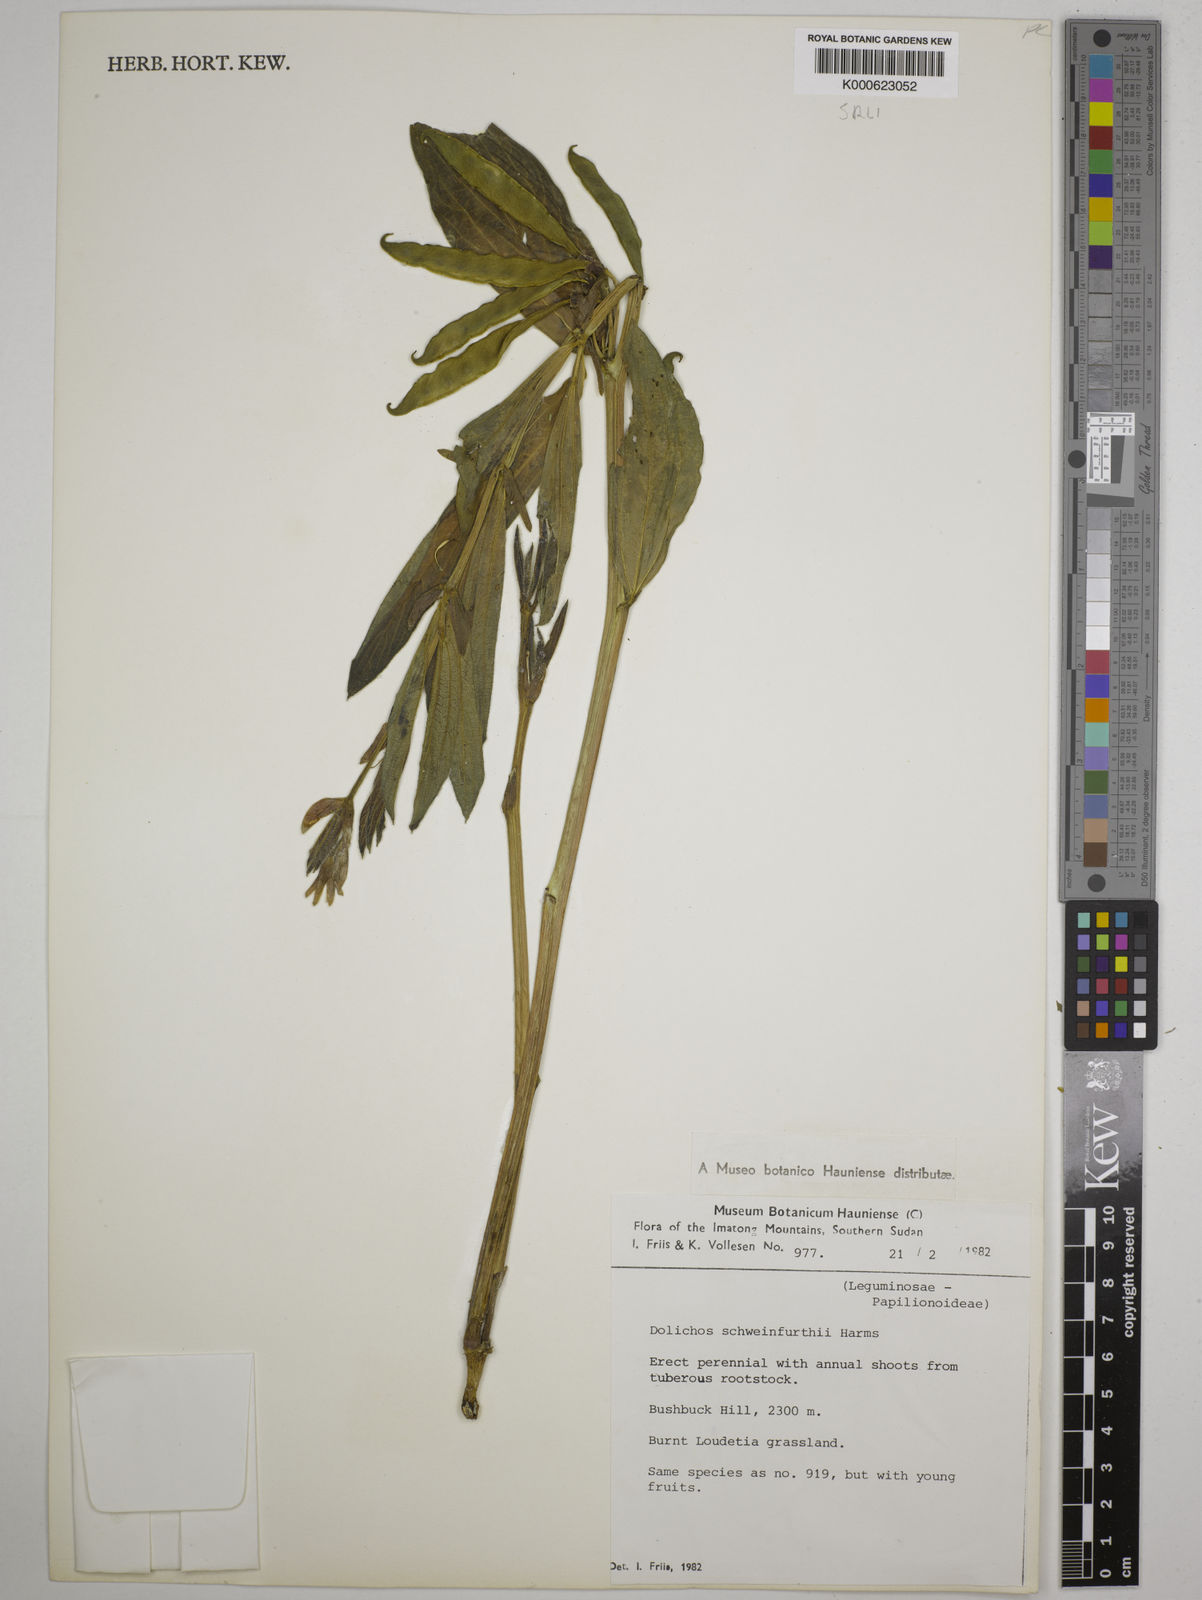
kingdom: Plantae
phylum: Tracheophyta
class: Magnoliopsida
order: Fabales
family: Fabaceae
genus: Dolichos
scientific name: Dolichos
